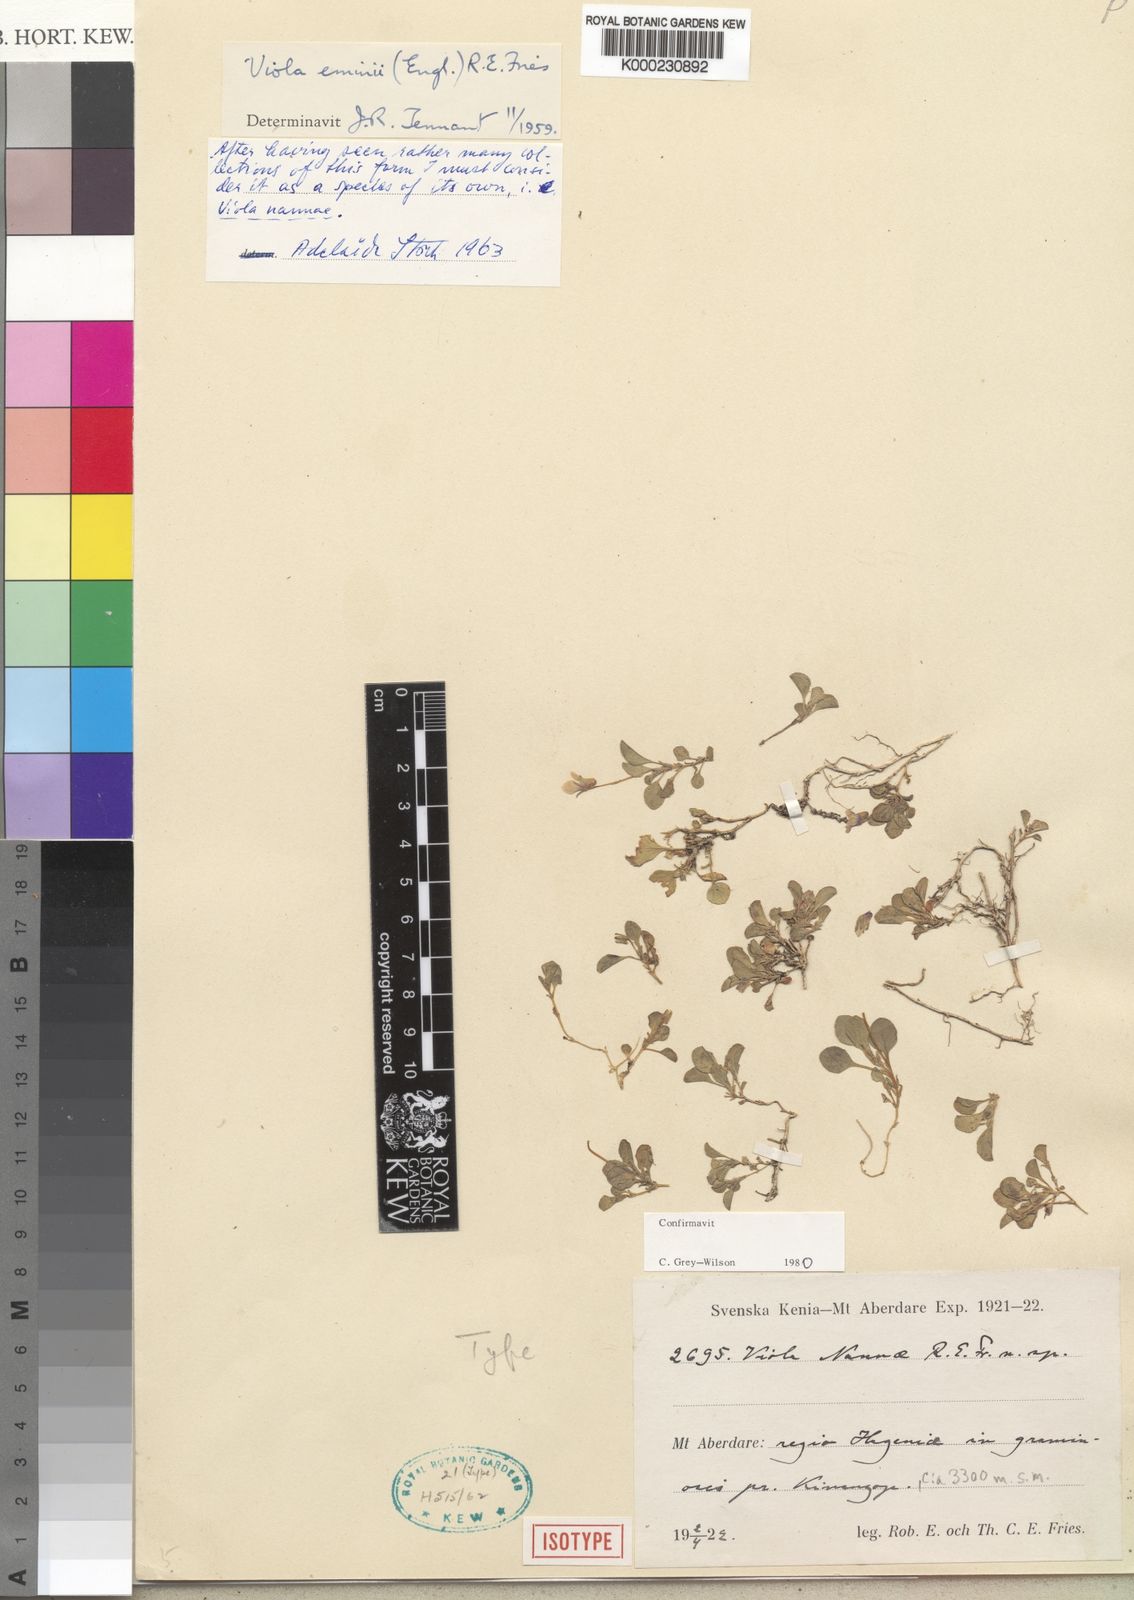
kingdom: Plantae
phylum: Tracheophyta
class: Magnoliopsida
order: Malpighiales
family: Violaceae
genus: Viola
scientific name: Viola nannae
